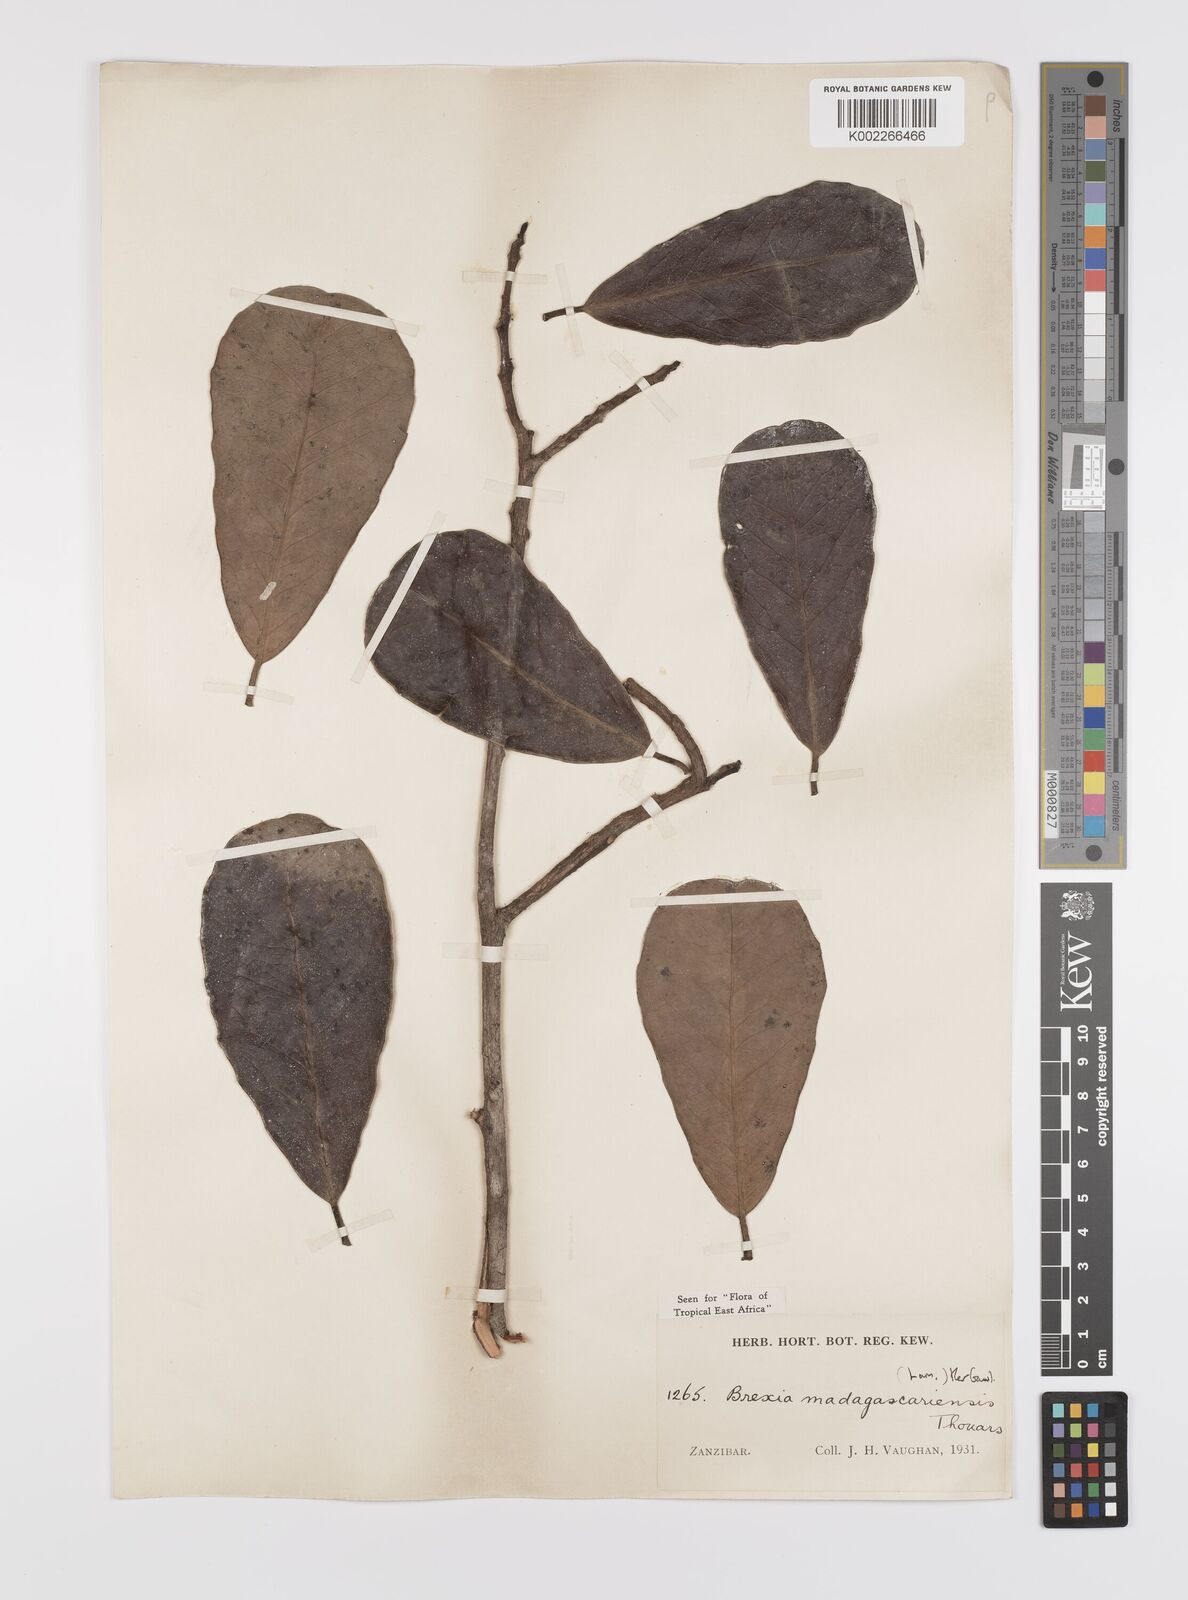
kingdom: Plantae
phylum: Tracheophyta
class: Magnoliopsida
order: Celastrales
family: Celastraceae
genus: Brexia
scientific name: Brexia madagascariensis
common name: Brexia
